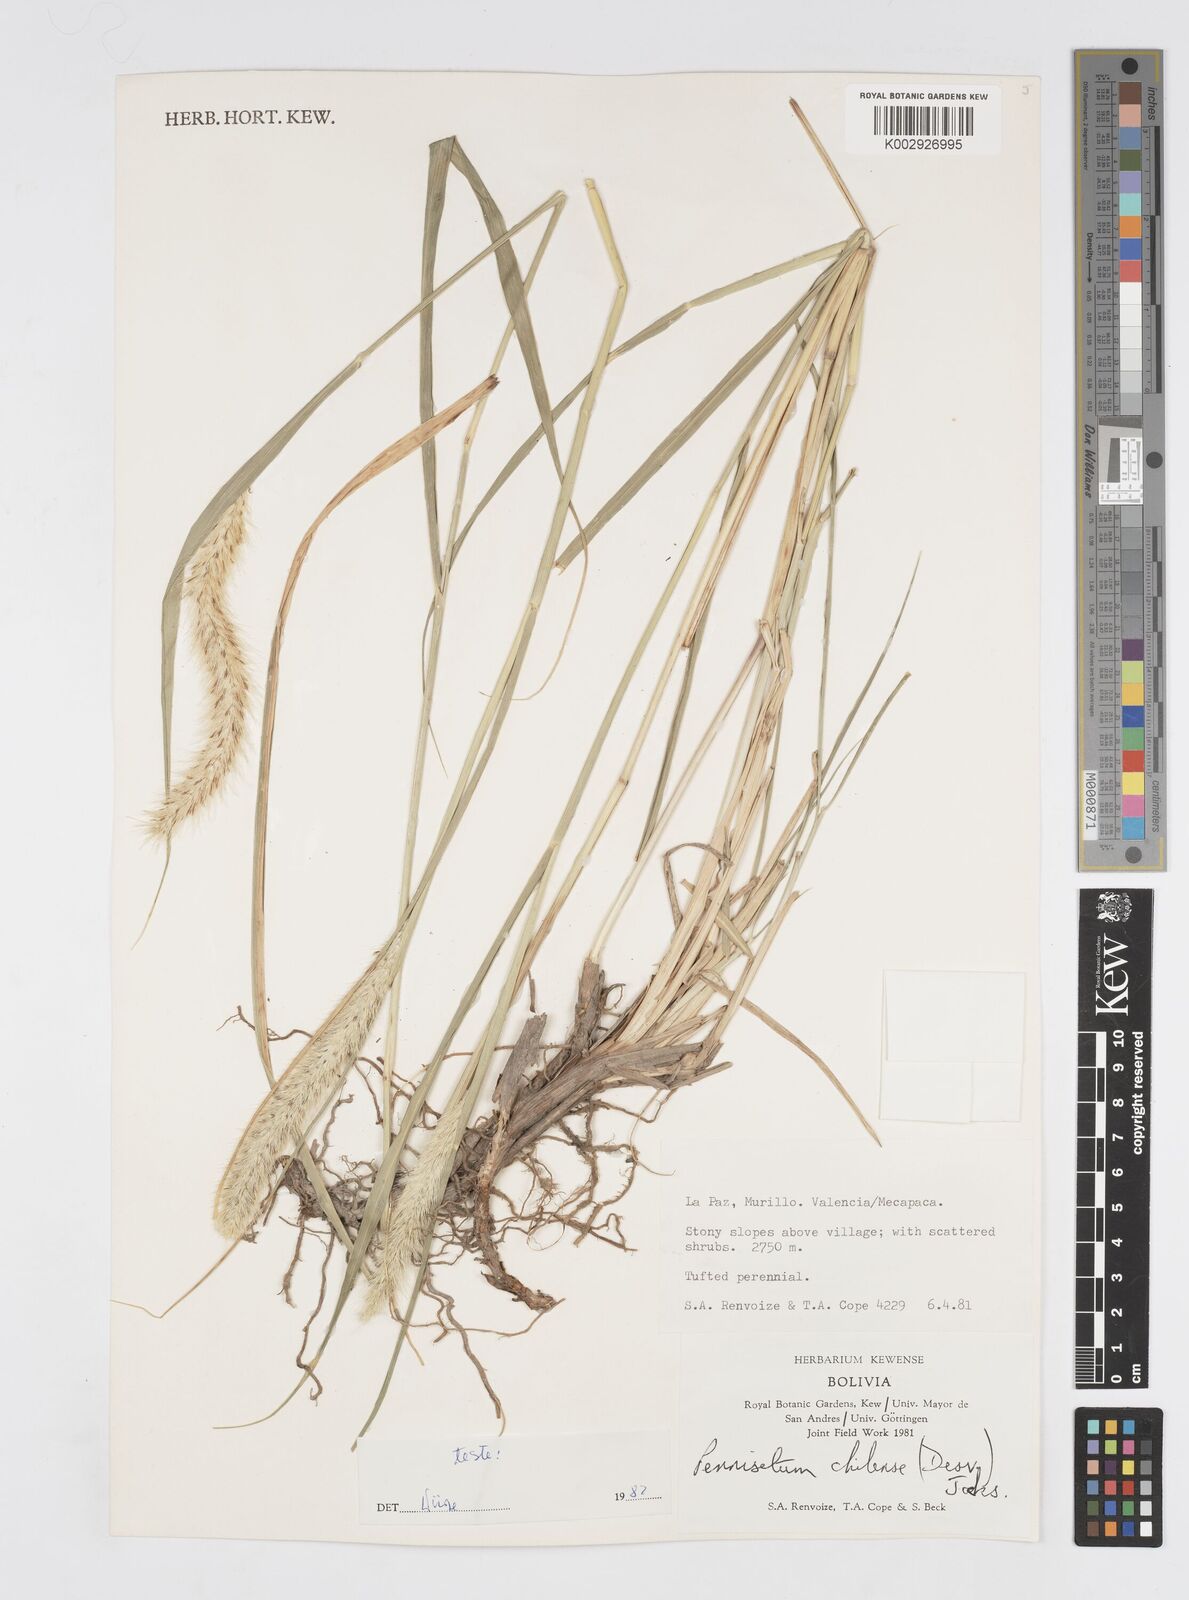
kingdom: Plantae
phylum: Tracheophyta
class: Liliopsida
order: Poales
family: Poaceae
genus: Cenchrus
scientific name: Cenchrus chilensis
